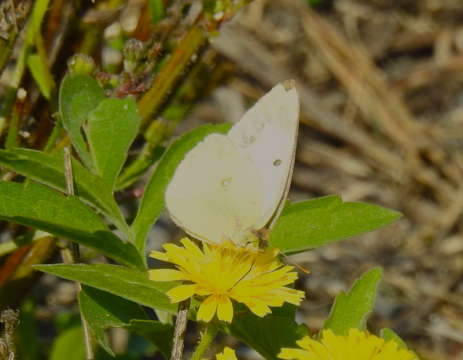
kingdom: Animalia
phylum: Arthropoda
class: Insecta
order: Lepidoptera
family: Pieridae
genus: Colias
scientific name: Colias philodice
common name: Clouded Sulphur
